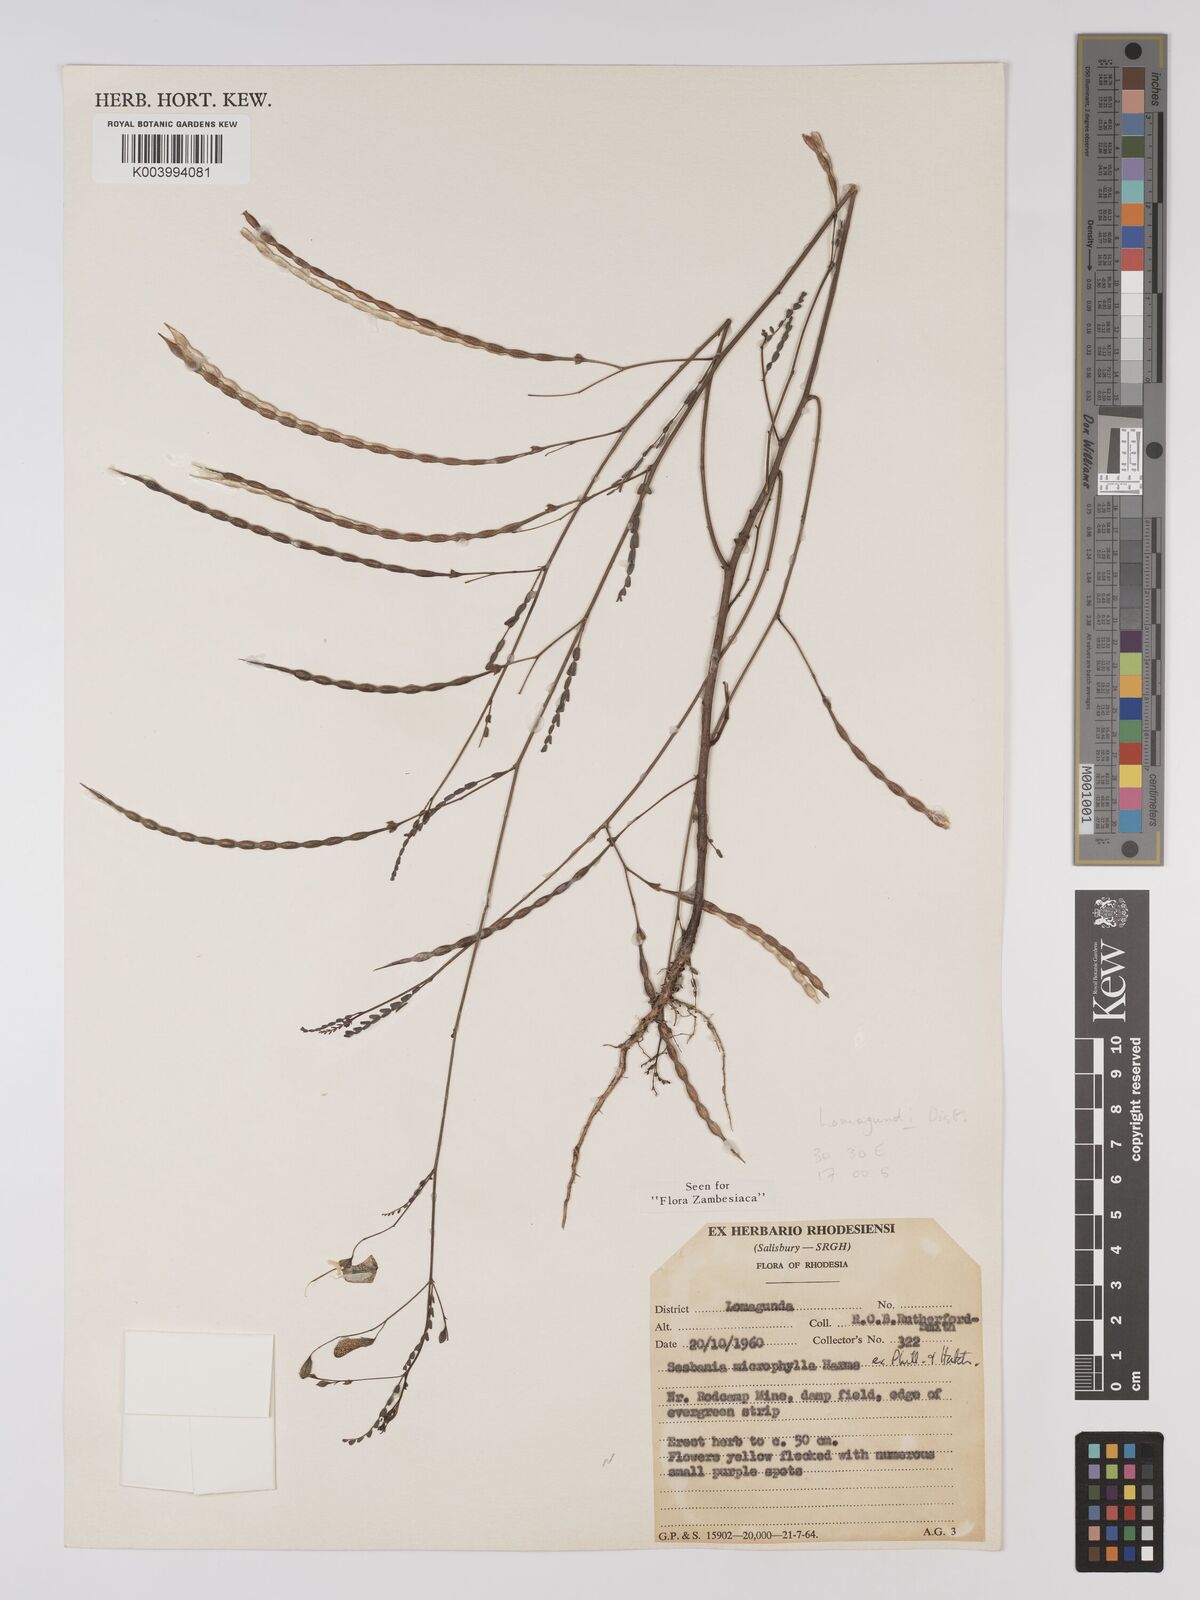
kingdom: Plantae
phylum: Tracheophyta
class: Magnoliopsida
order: Fabales
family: Fabaceae
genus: Sesbania
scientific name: Sesbania microphylla
